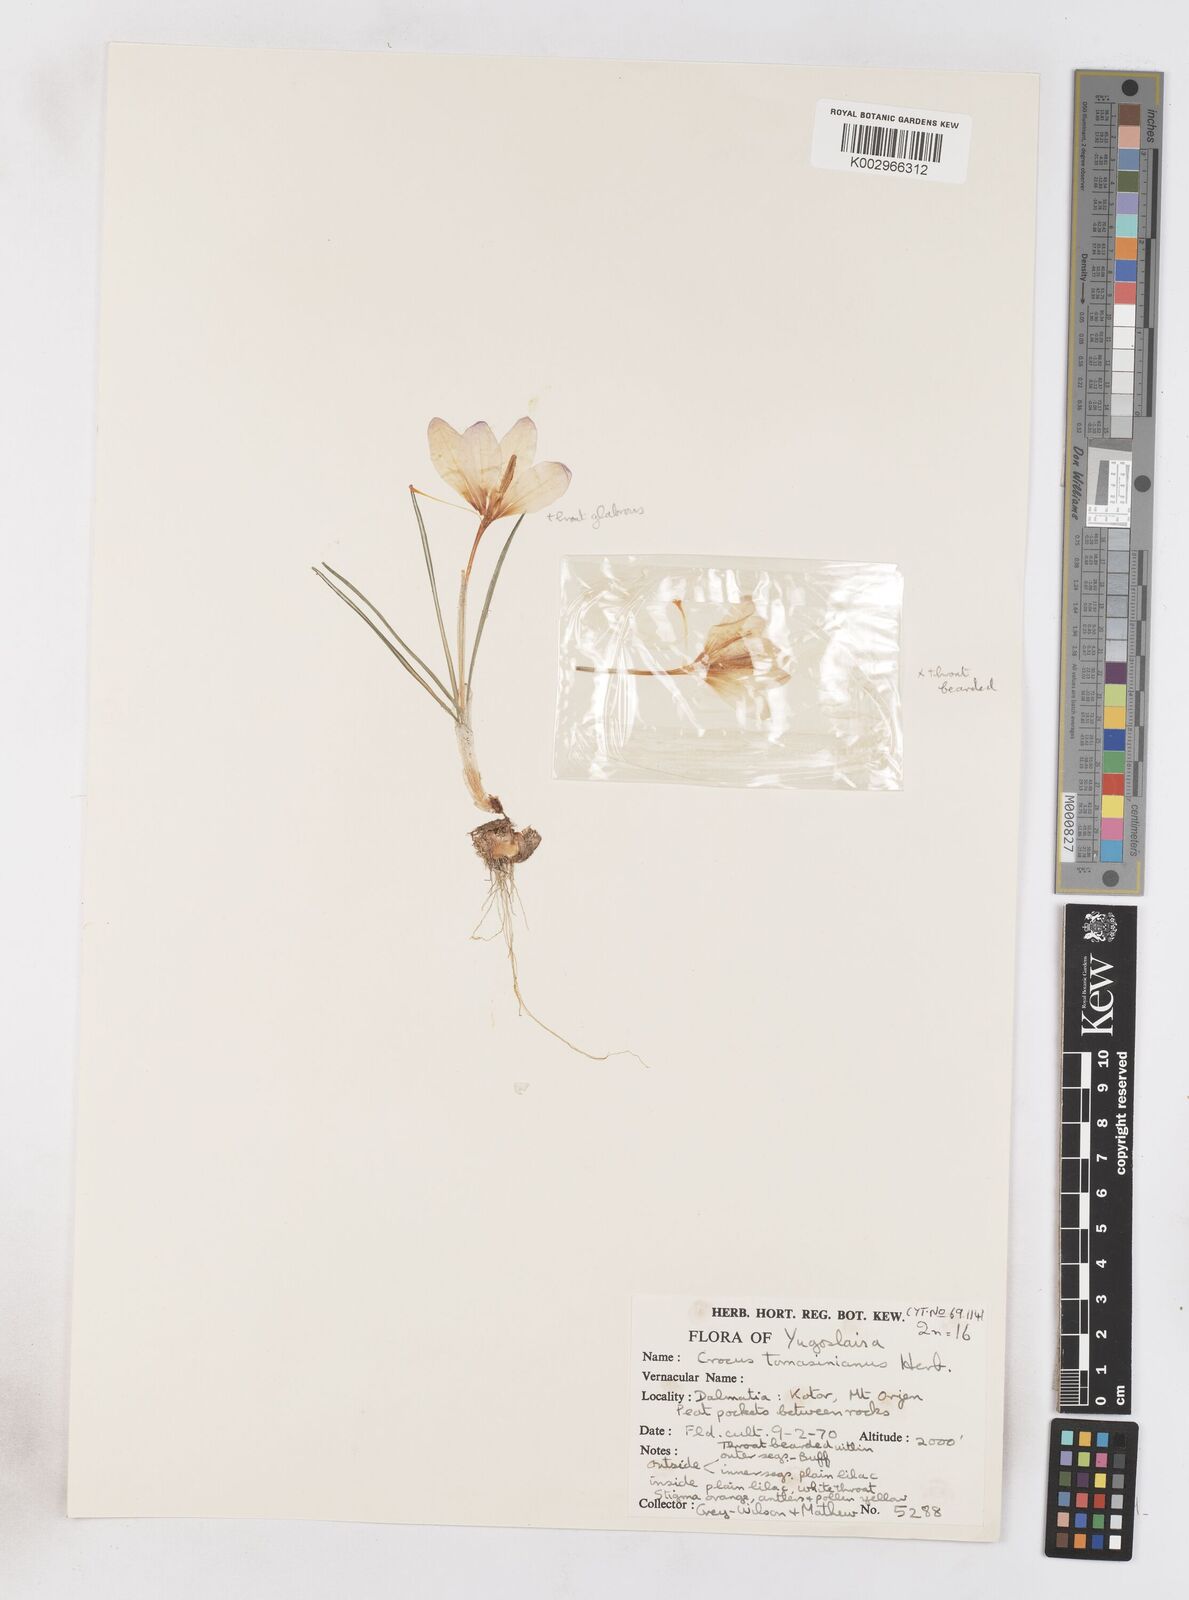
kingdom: Plantae
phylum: Tracheophyta
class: Liliopsida
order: Asparagales
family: Iridaceae
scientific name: Iridaceae
